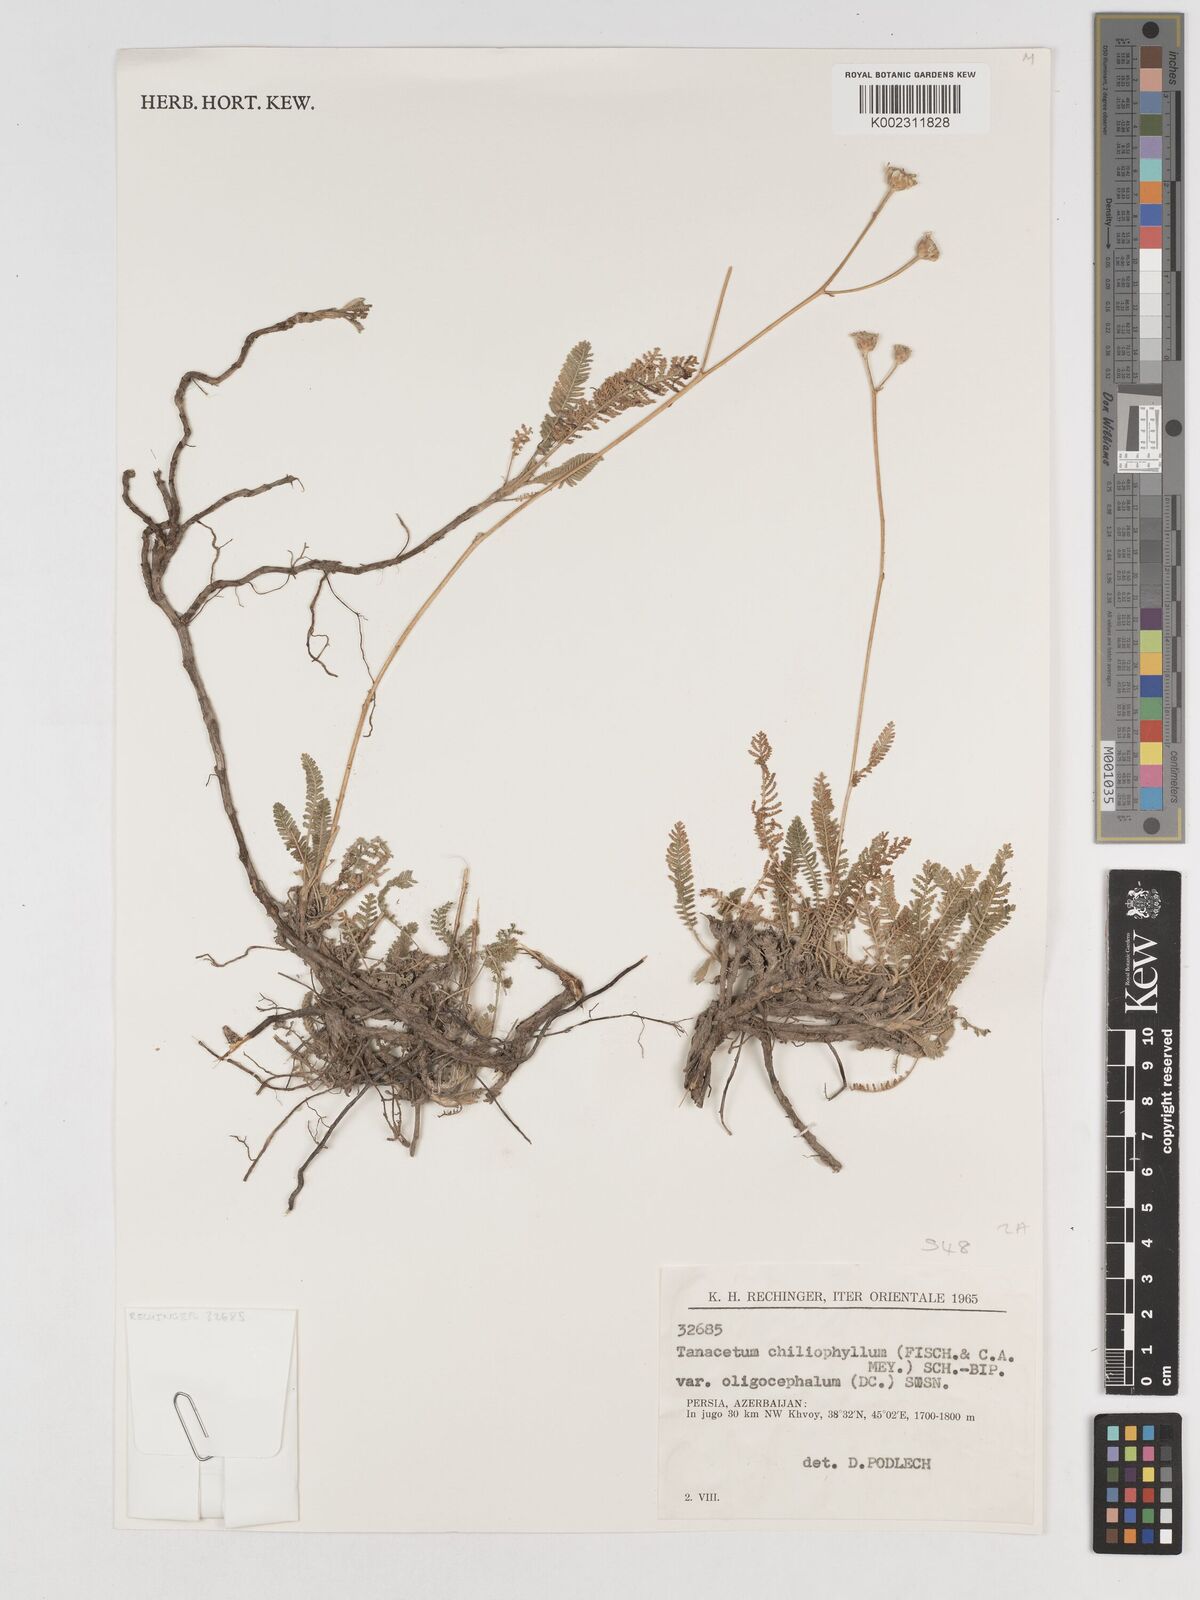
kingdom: Plantae
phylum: Tracheophyta
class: Magnoliopsida
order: Asterales
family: Asteraceae
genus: Tanacetum
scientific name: Tanacetum aureum
